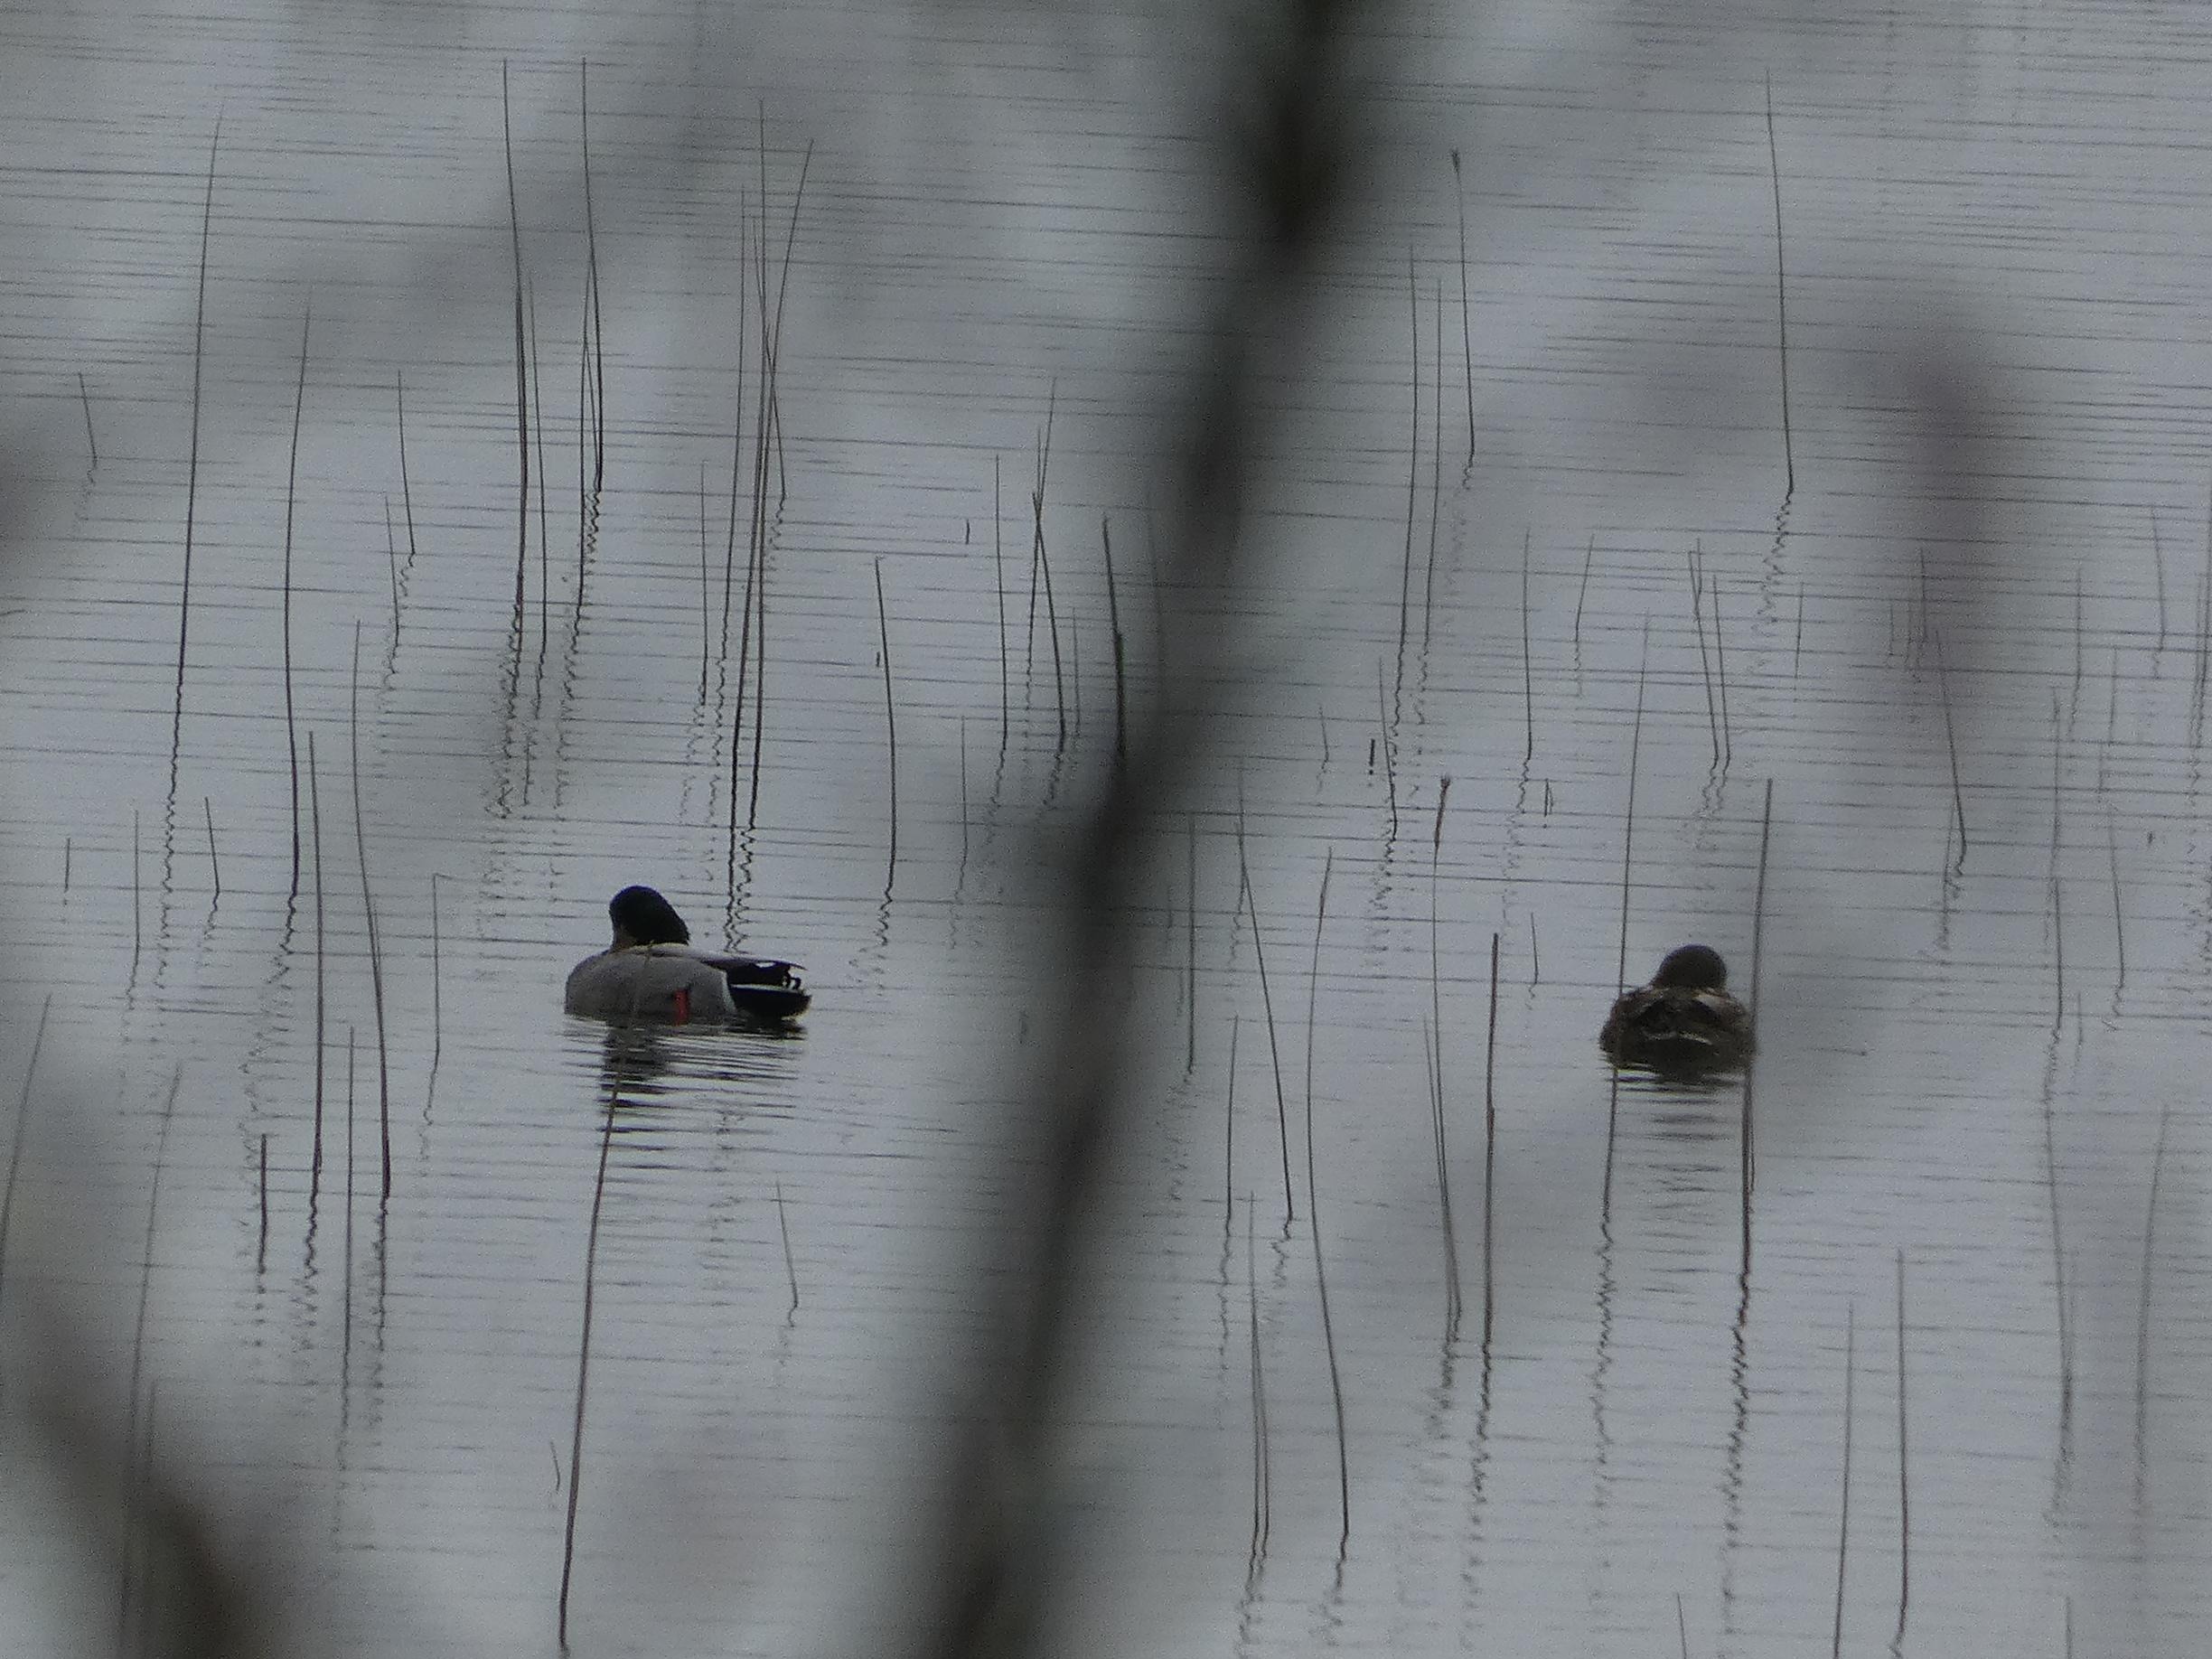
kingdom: Animalia
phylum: Chordata
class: Aves
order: Anseriformes
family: Anatidae
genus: Anas
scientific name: Anas platyrhynchos
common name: Gråand
